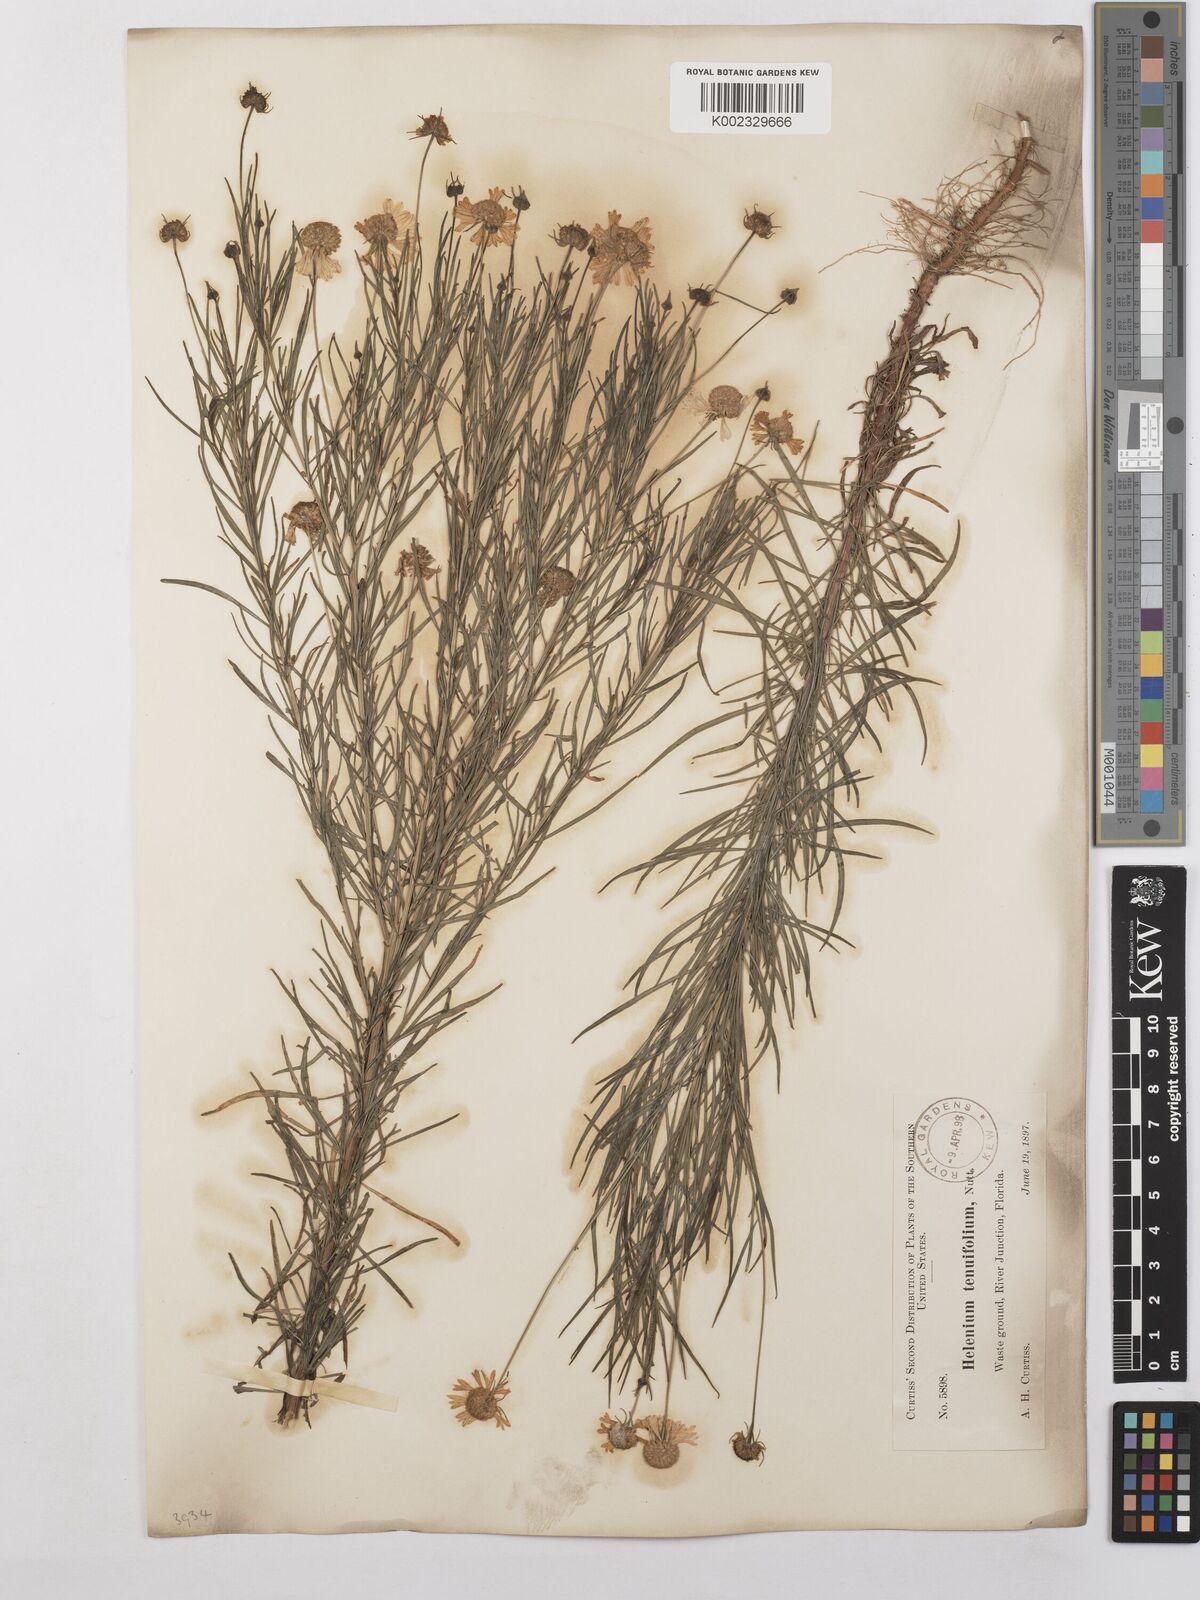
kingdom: Plantae
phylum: Tracheophyta
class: Magnoliopsida
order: Asterales
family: Asteraceae
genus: Helenium
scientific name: Helenium amarum
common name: Bitter sneezeweed
